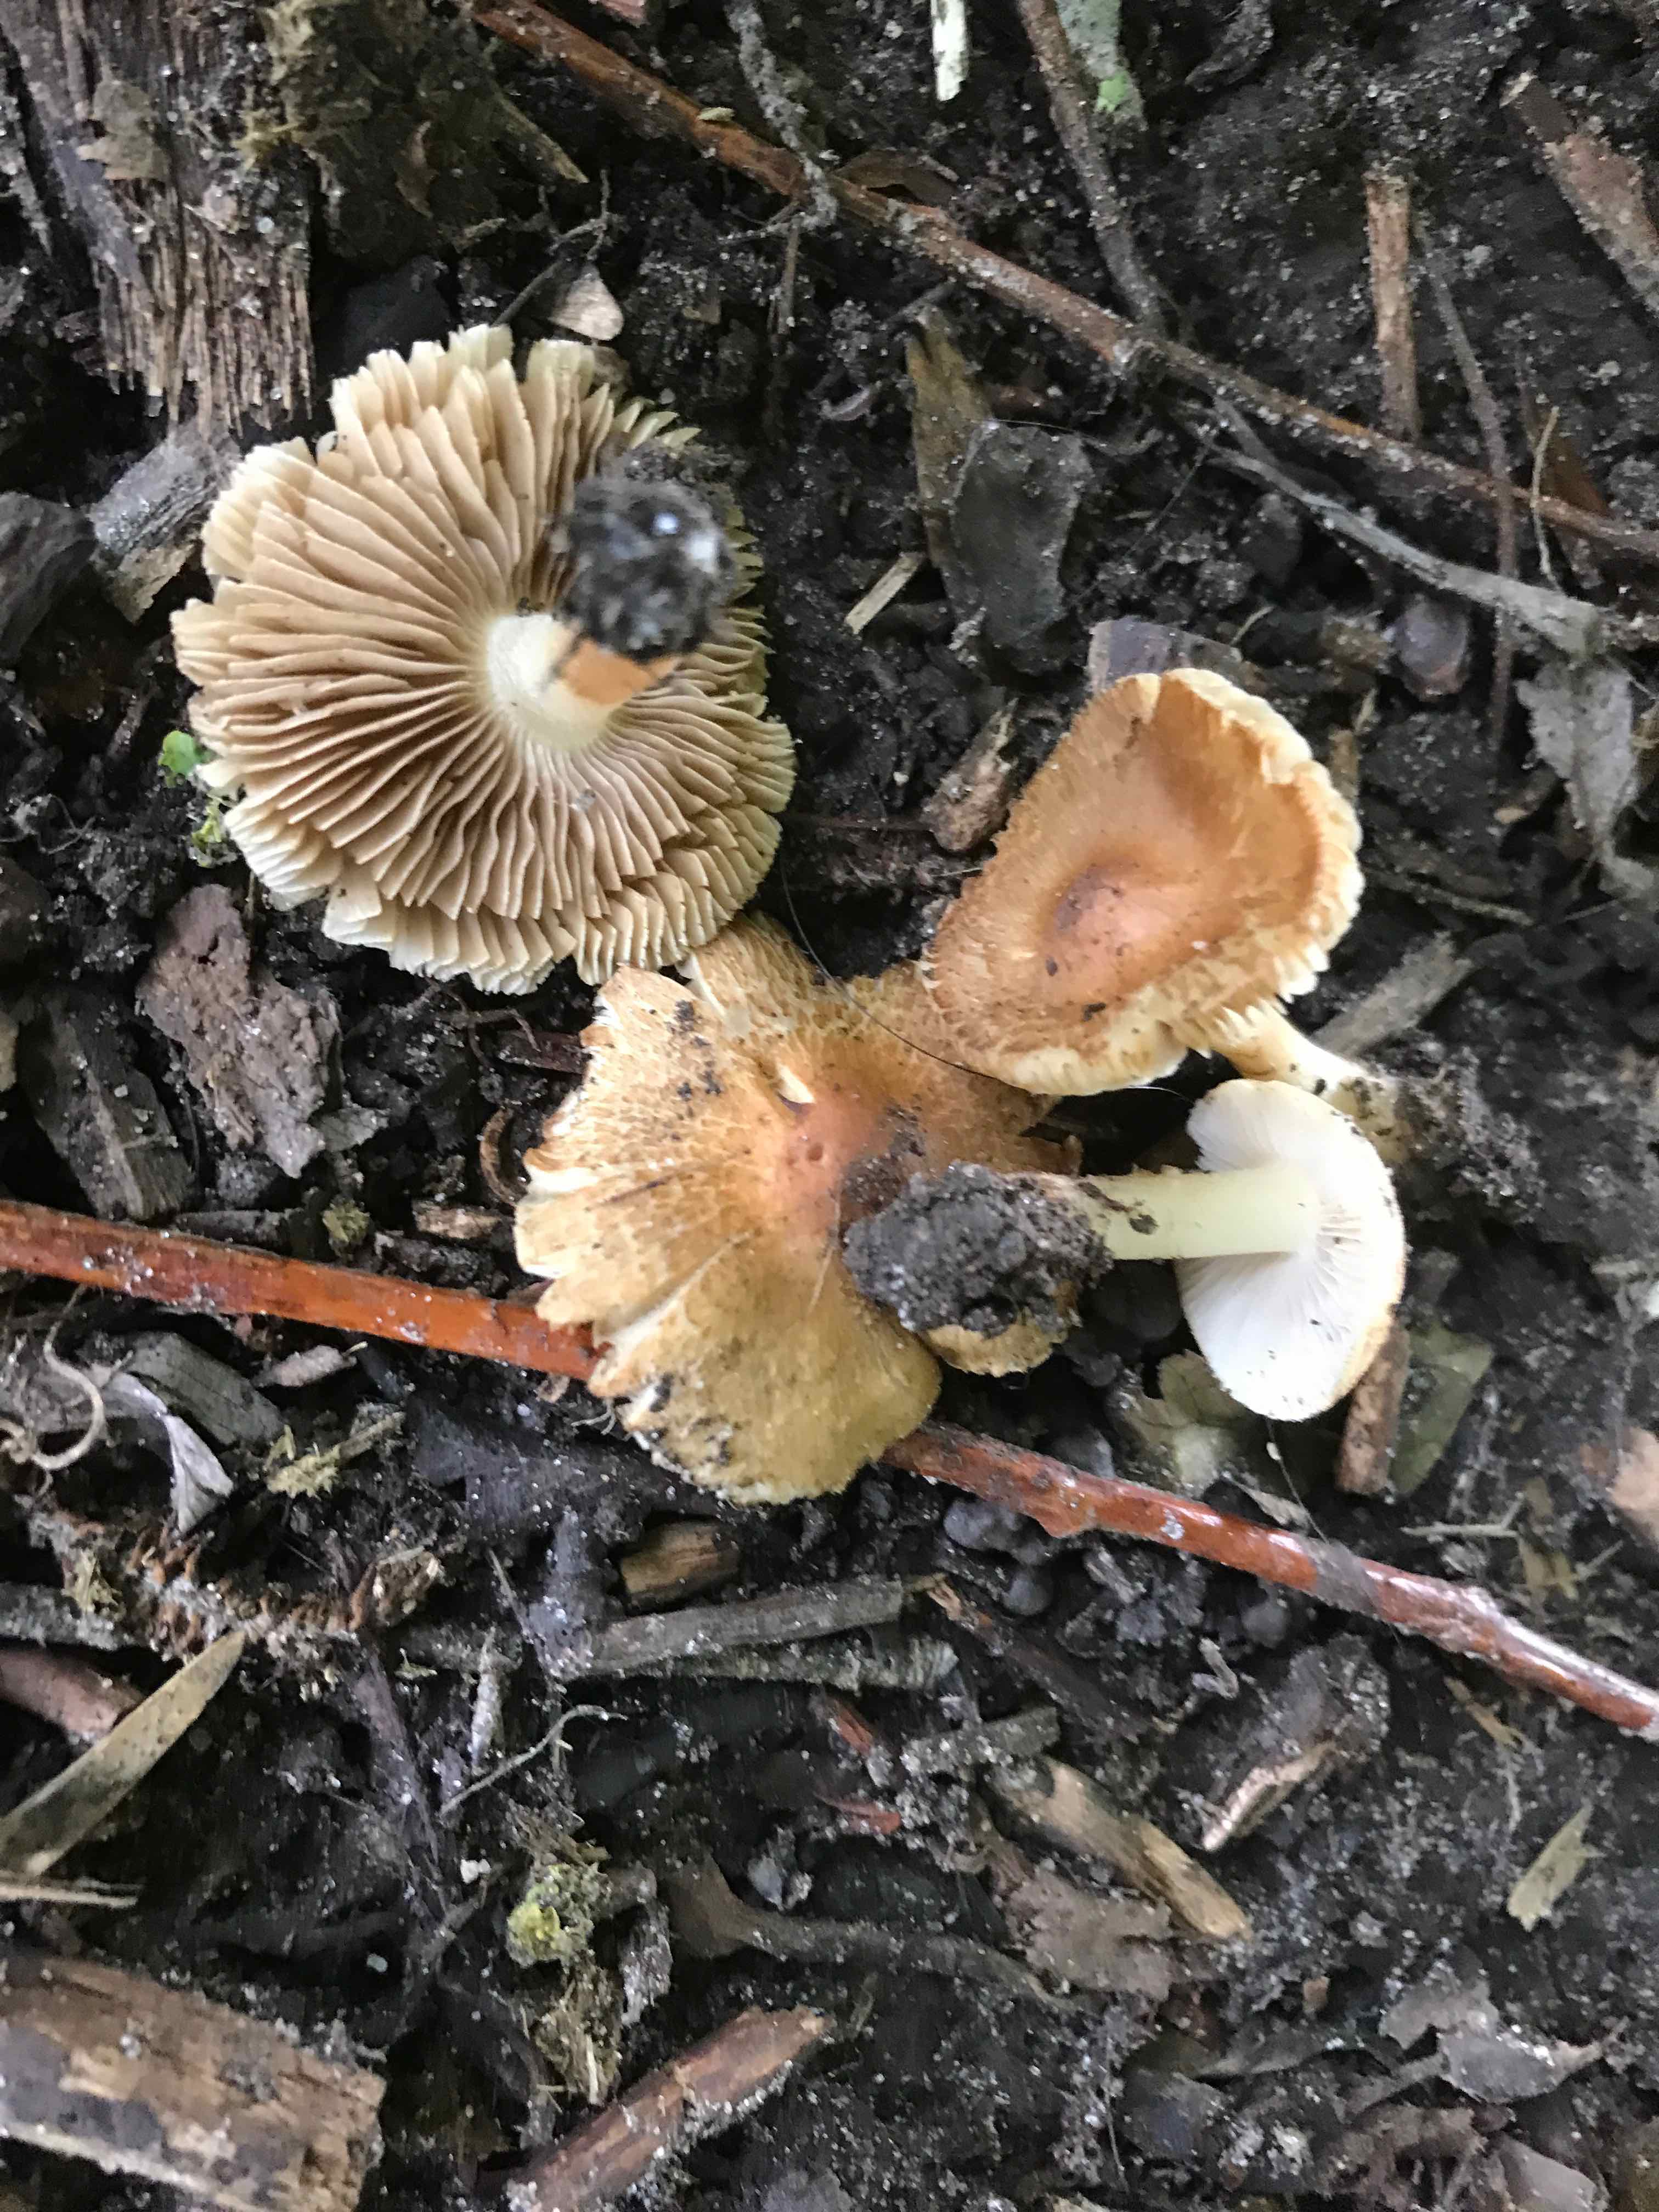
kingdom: Fungi
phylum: Basidiomycota
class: Agaricomycetes
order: Agaricales
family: Inocybaceae
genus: Inocybe
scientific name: Inocybe
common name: trævlhat
